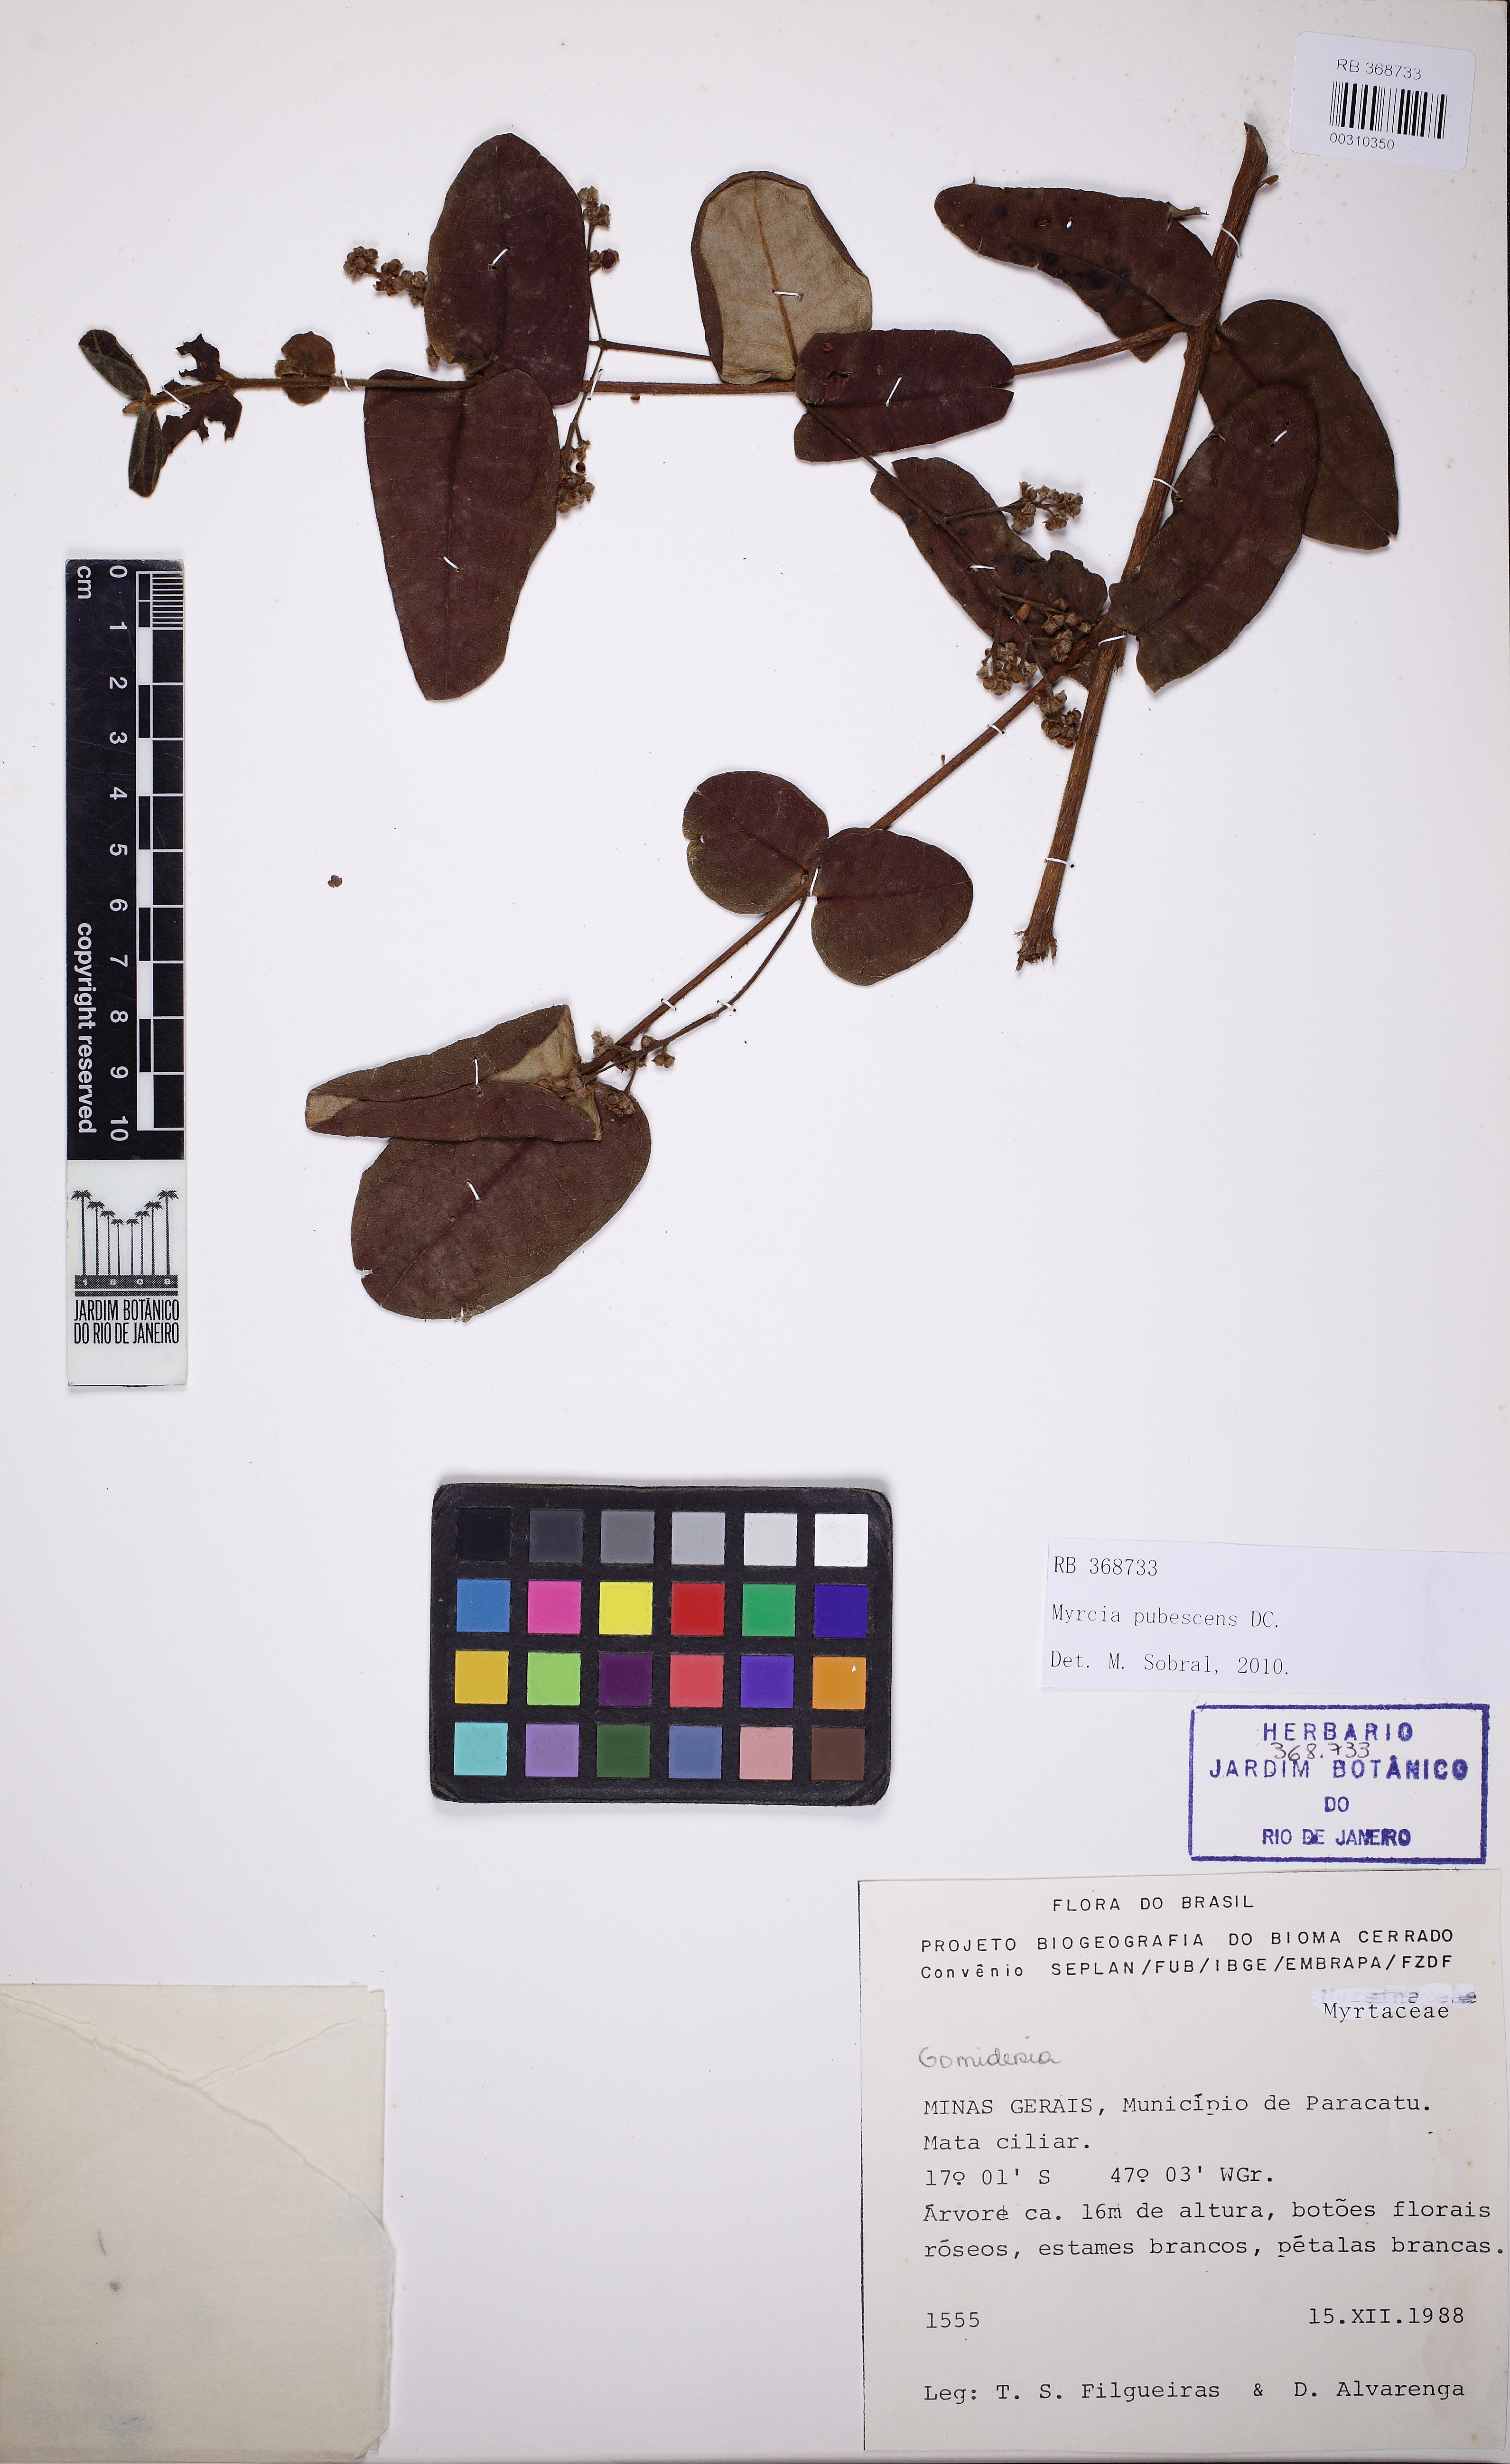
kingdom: Plantae
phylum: Tracheophyta
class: Magnoliopsida
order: Myrtales
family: Myrtaceae
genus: Myrcia
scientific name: Myrcia pubescens
